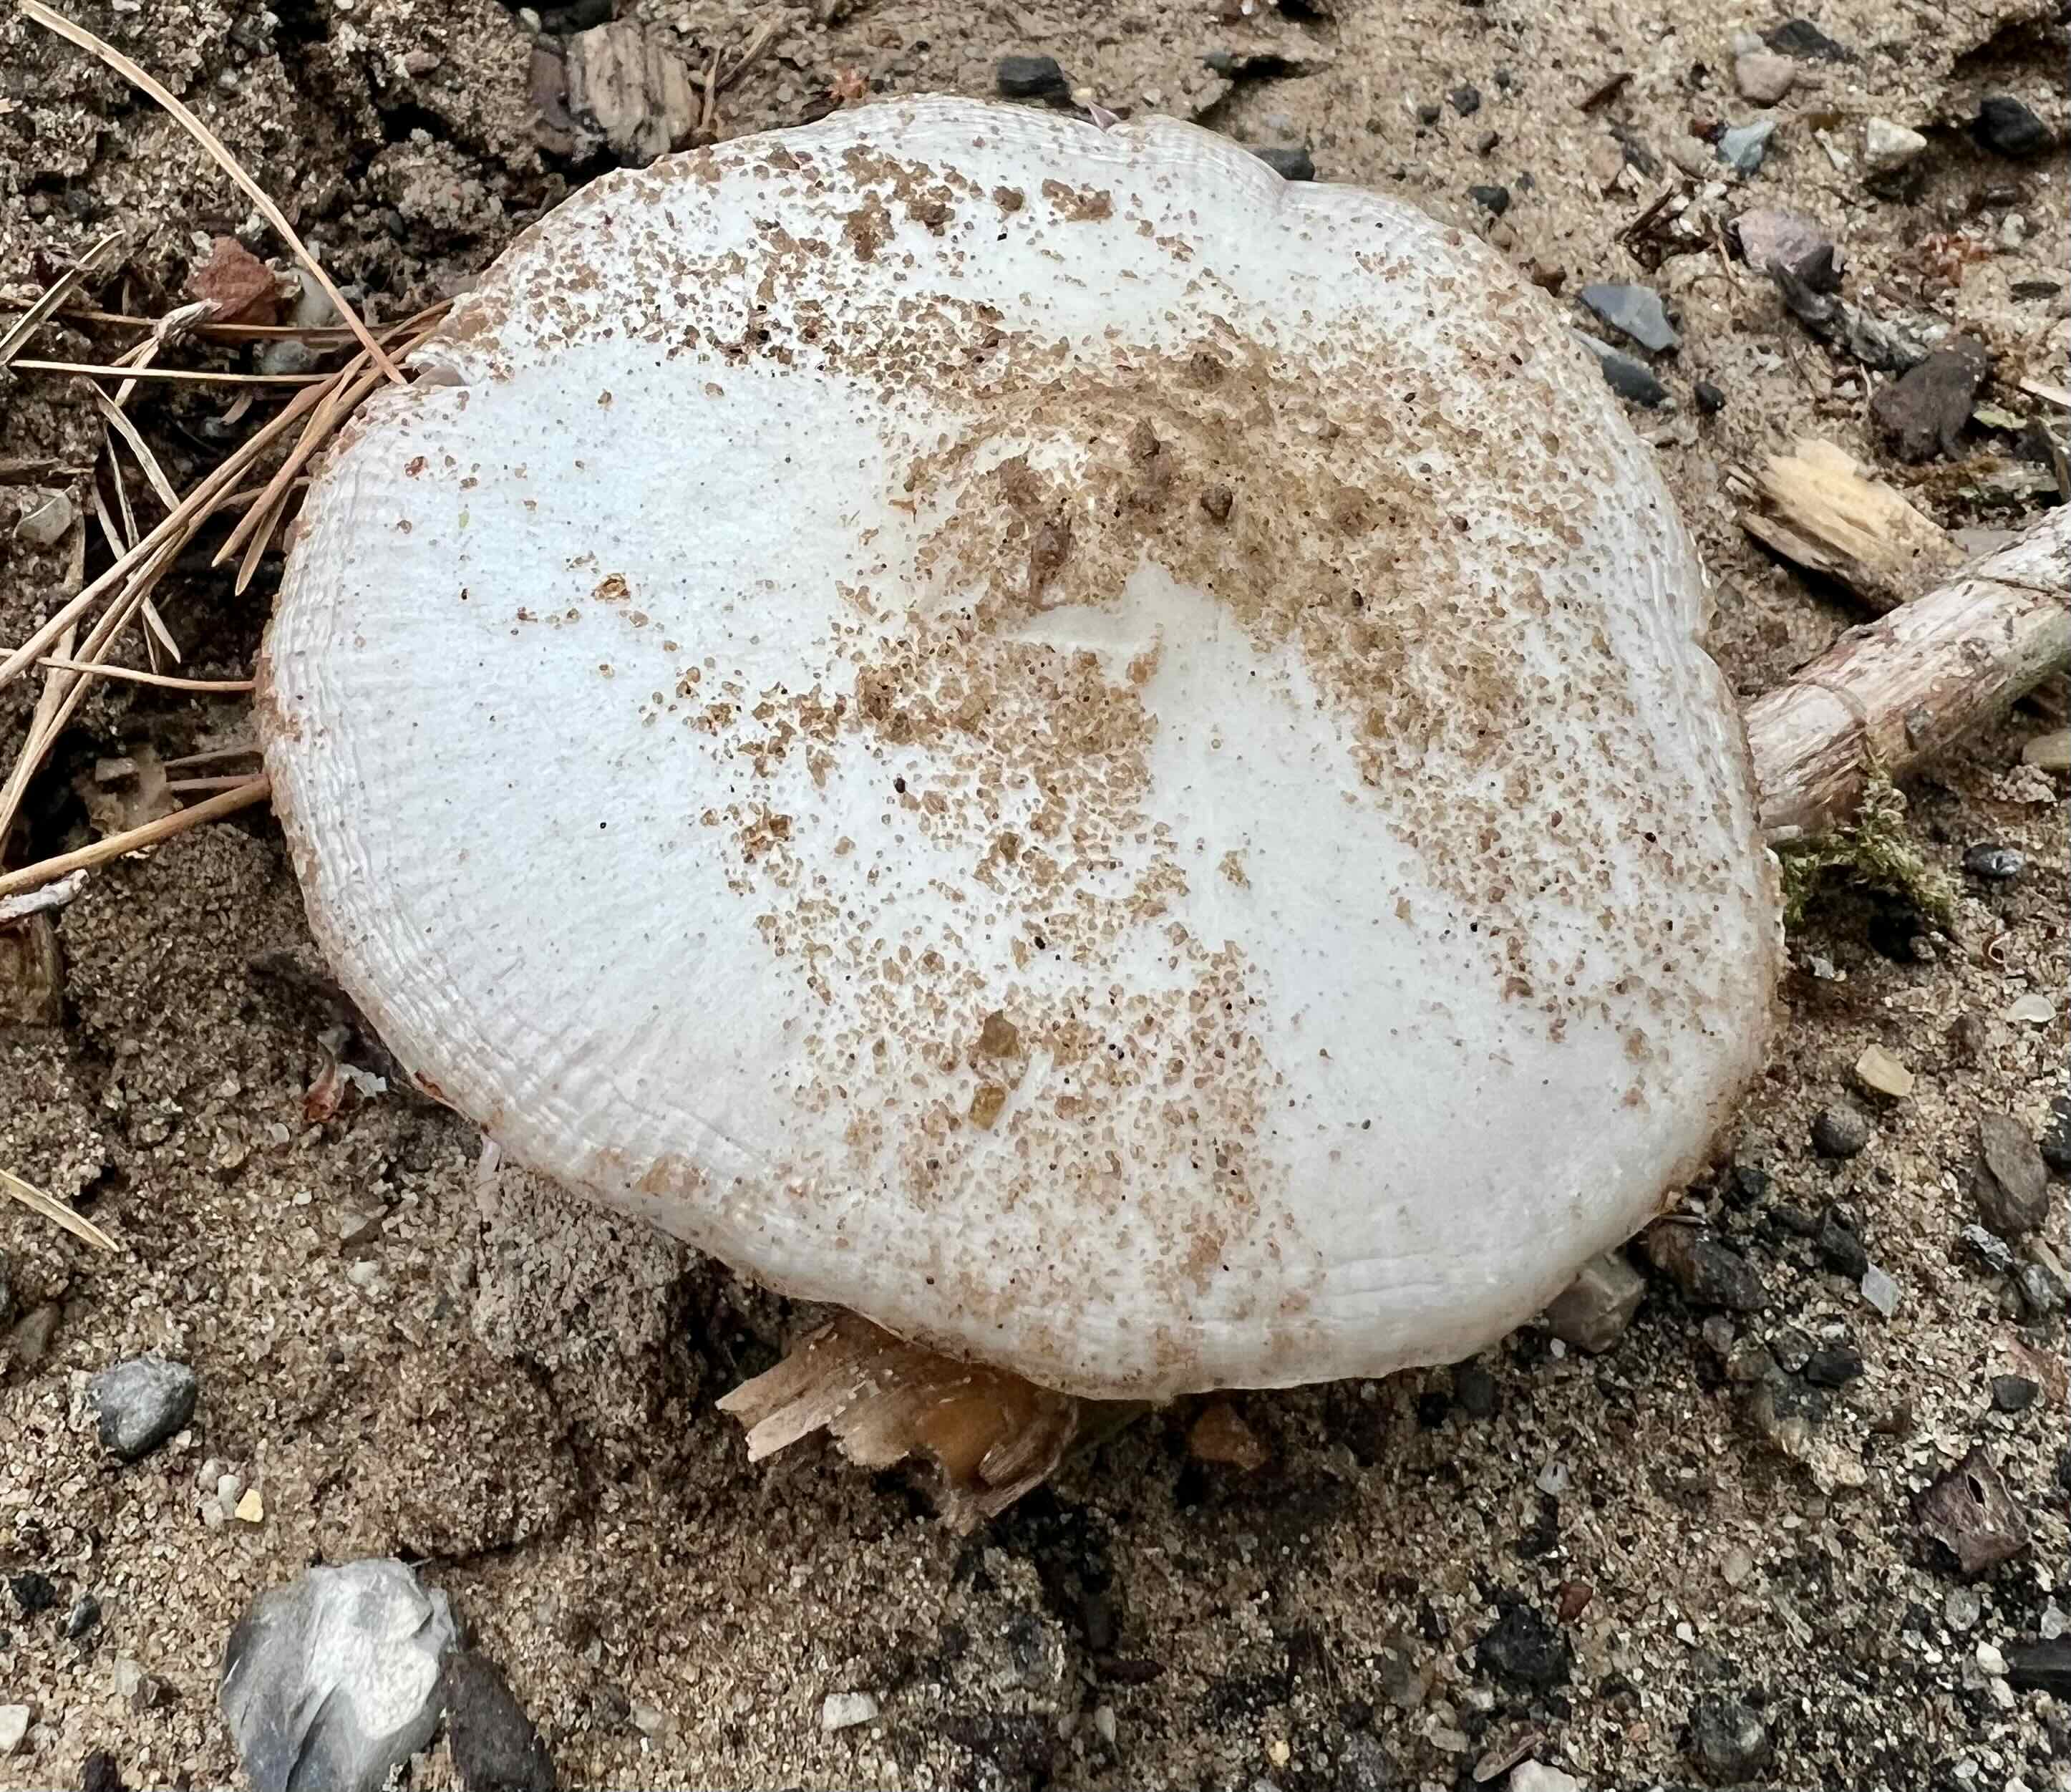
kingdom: Fungi
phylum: Basidiomycota
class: Agaricomycetes
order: Agaricales
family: Pluteaceae
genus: Volvopluteus
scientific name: Volvopluteus gloiocephalus
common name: høj posesvamp
